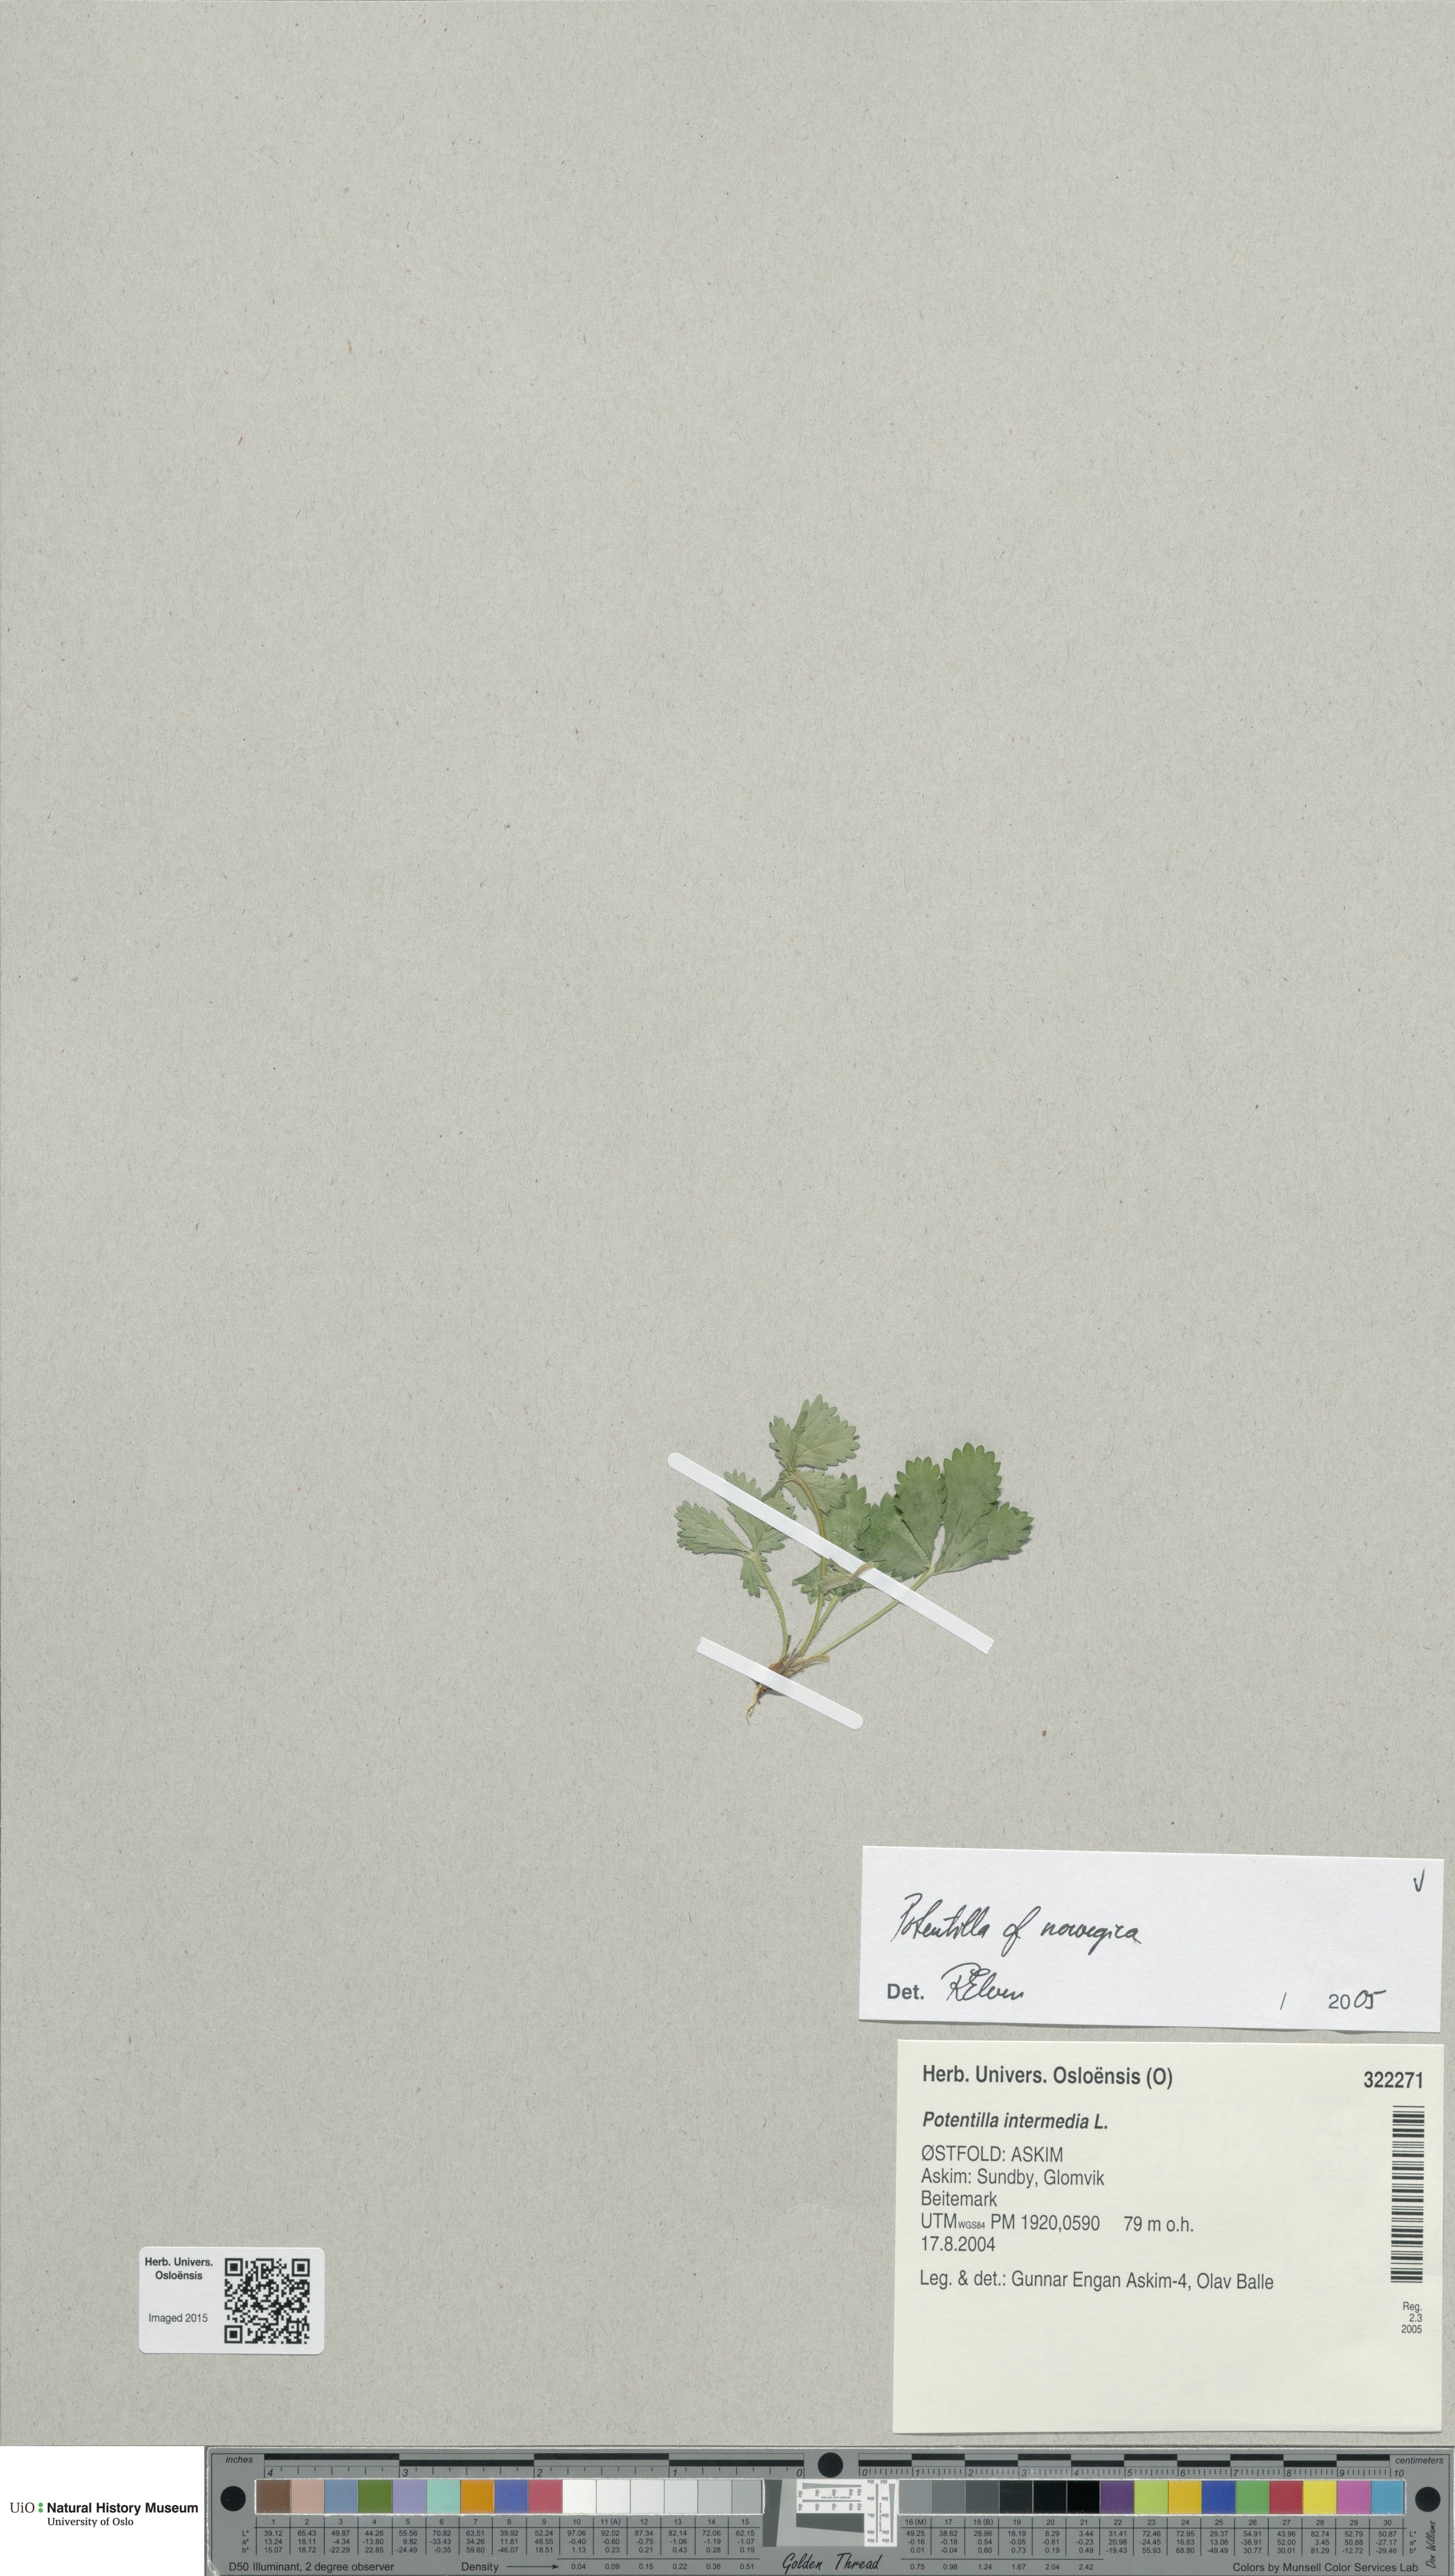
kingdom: Plantae
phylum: Tracheophyta
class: Magnoliopsida
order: Rosales
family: Rosaceae
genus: Potentilla
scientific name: Potentilla norvegica
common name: Ternate-leaved cinquefoil
